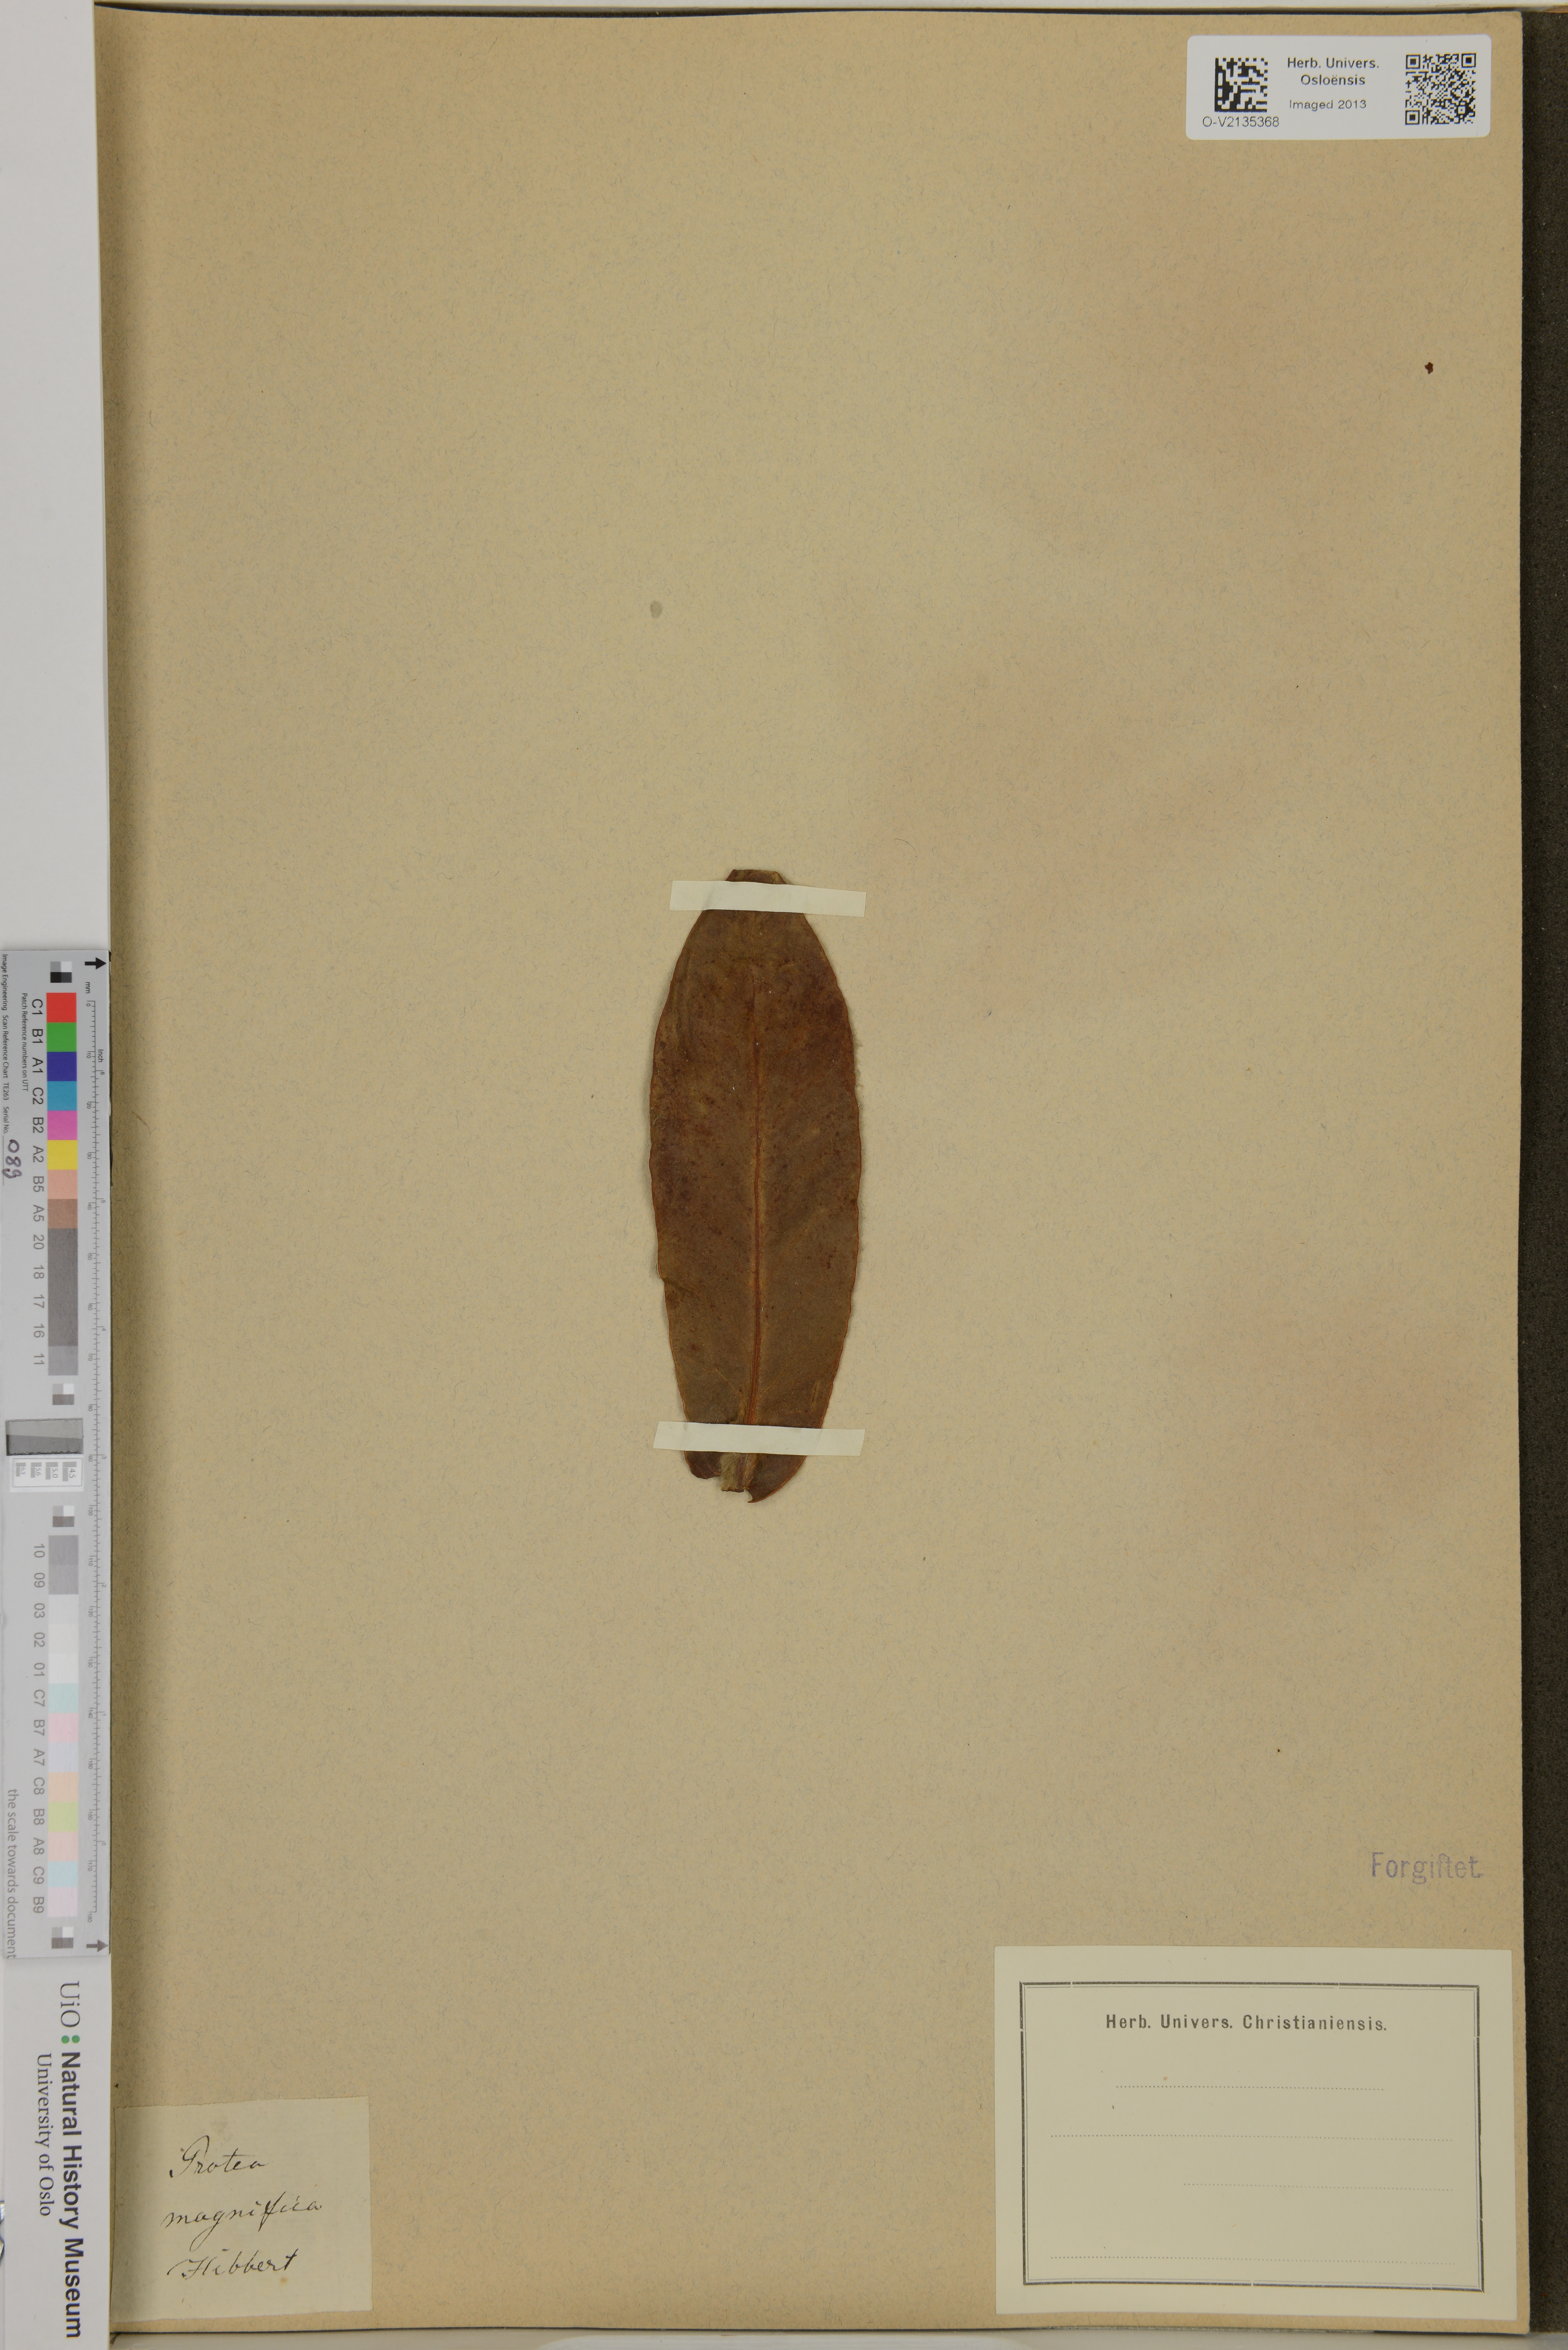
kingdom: Plantae
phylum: Tracheophyta
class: Magnoliopsida
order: Proteales
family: Proteaceae
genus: Protea
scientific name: Protea magnifica
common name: Bearded sugarbush
